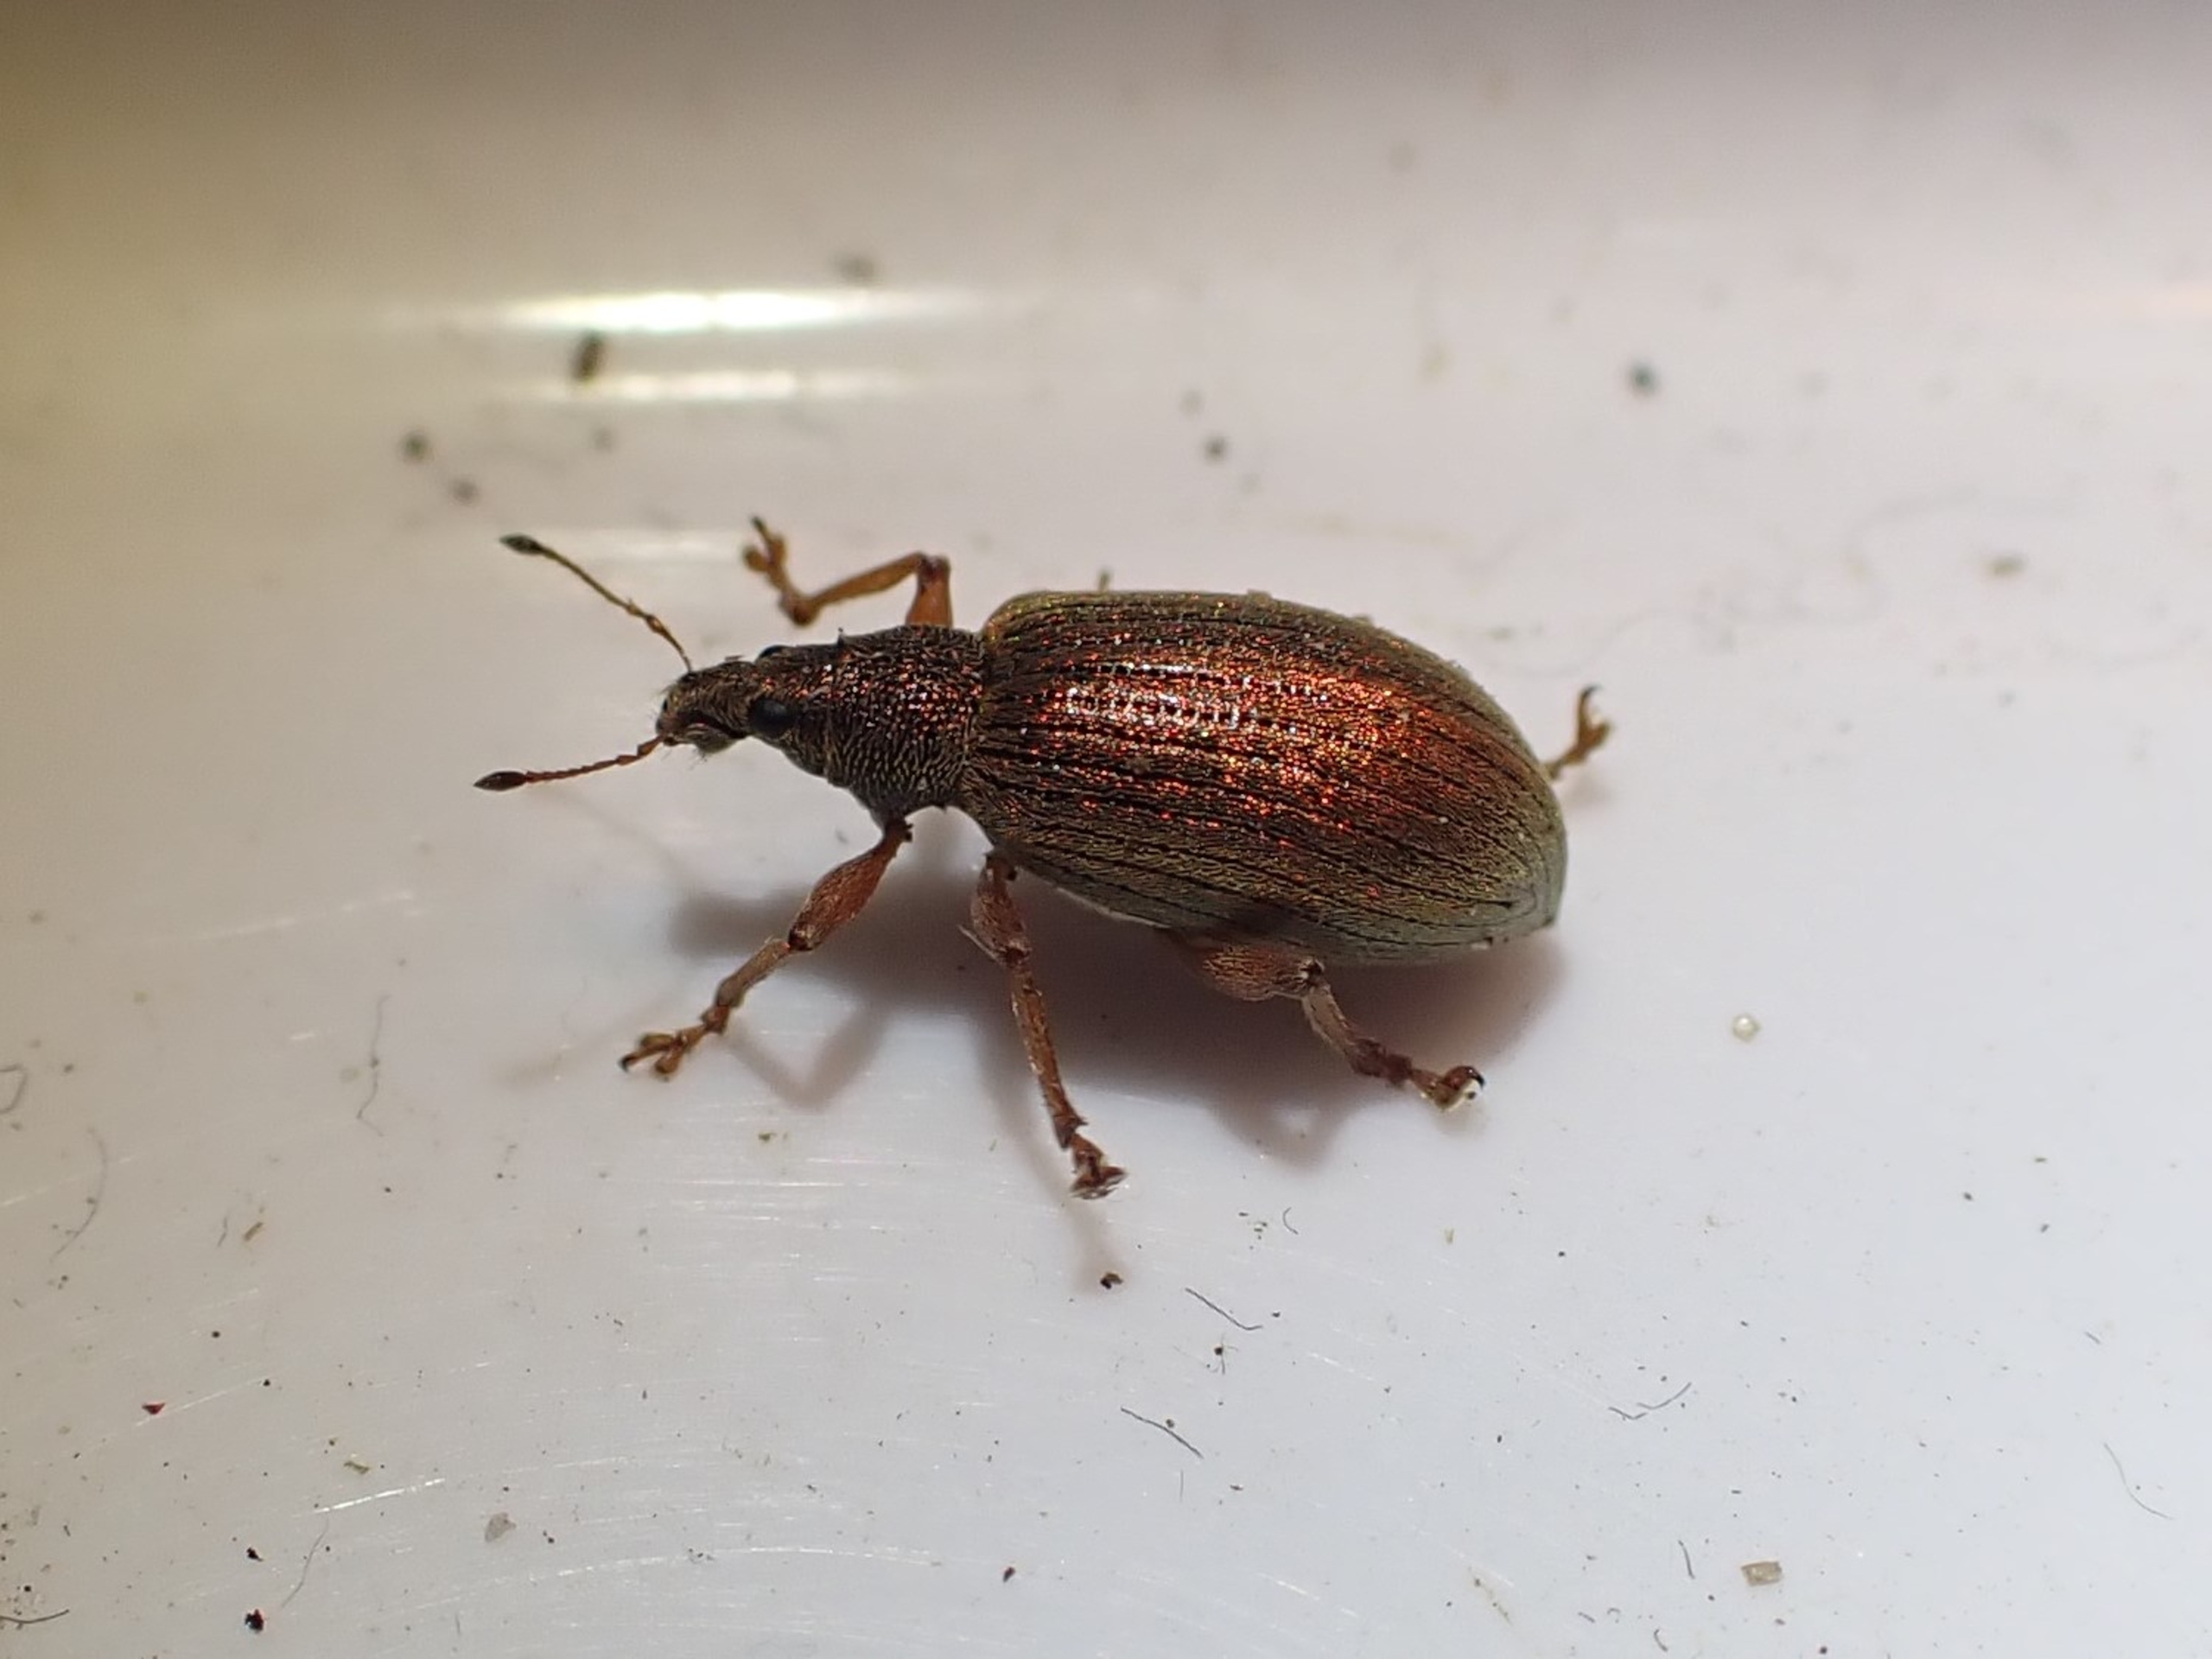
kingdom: Animalia
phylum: Arthropoda
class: Insecta
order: Coleoptera
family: Curculionidae
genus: Polydrusus
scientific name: Polydrusus mollis
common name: Blodsnudebille
